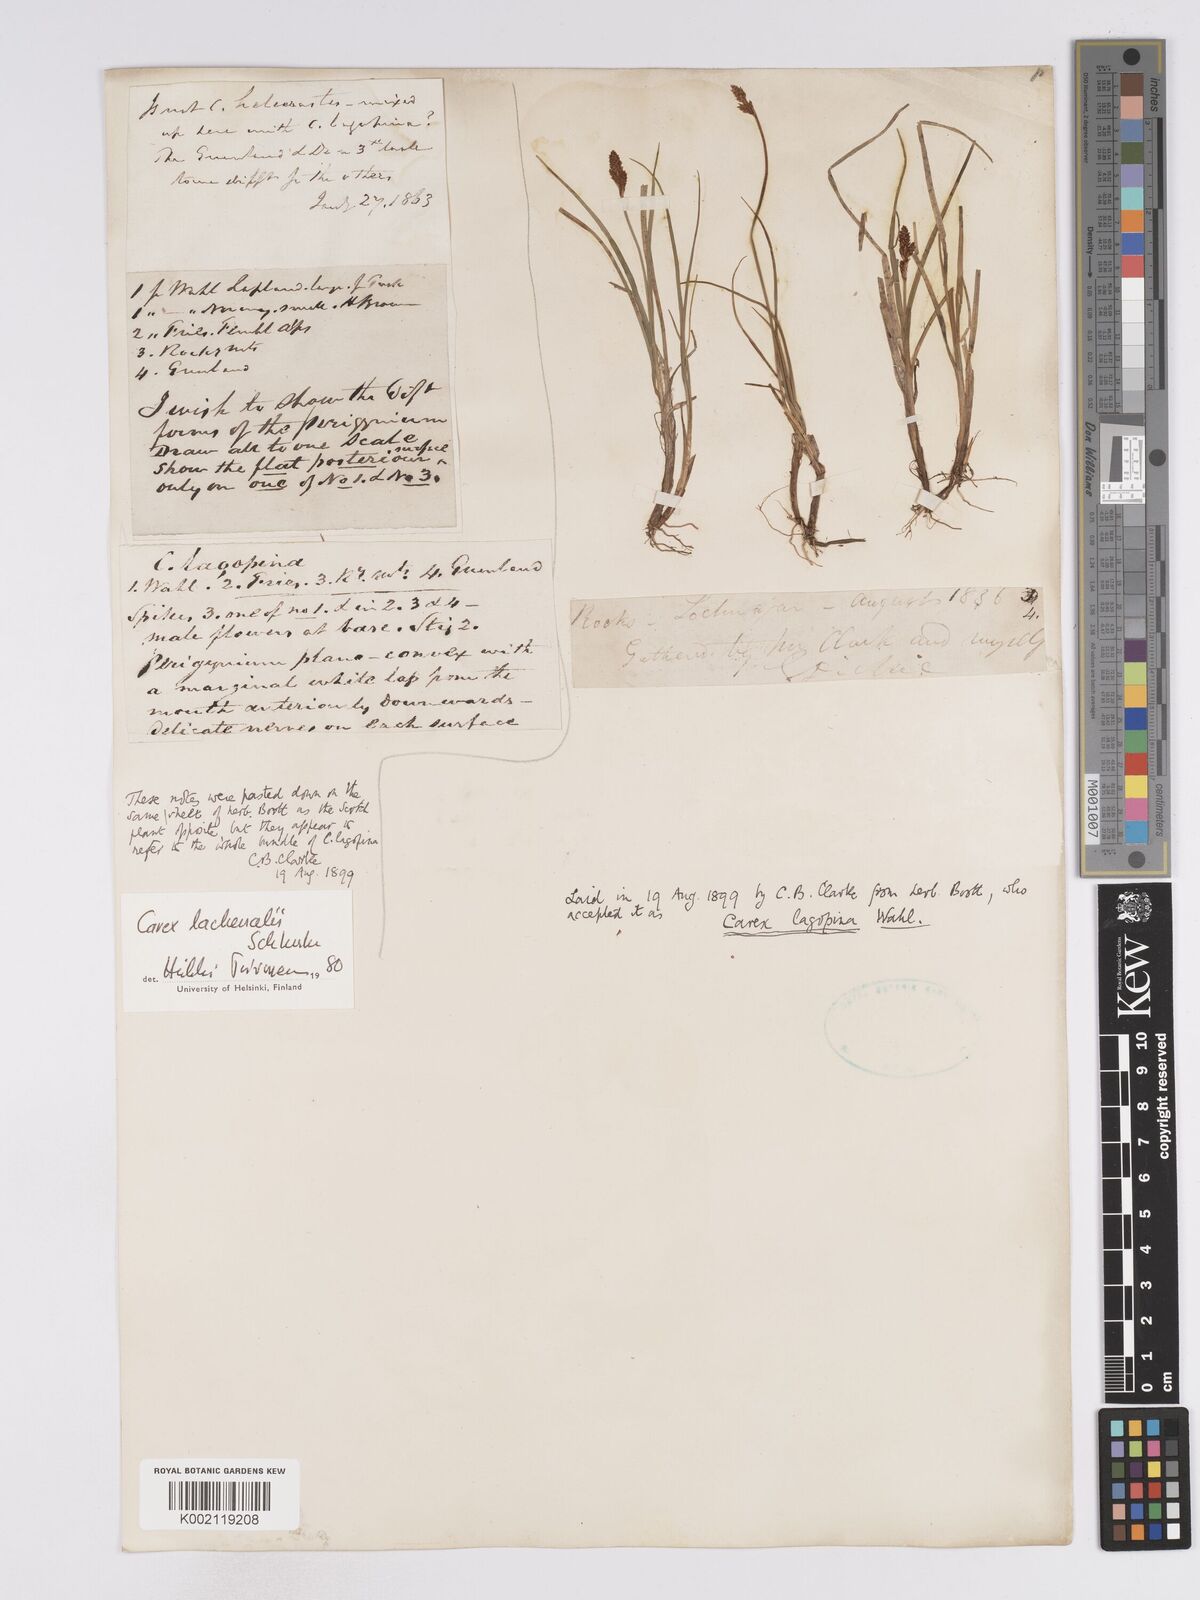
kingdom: Plantae
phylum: Tracheophyta
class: Liliopsida
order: Poales
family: Cyperaceae
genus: Carex
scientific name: Carex lachenalii
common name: Hare's-foot sedge
